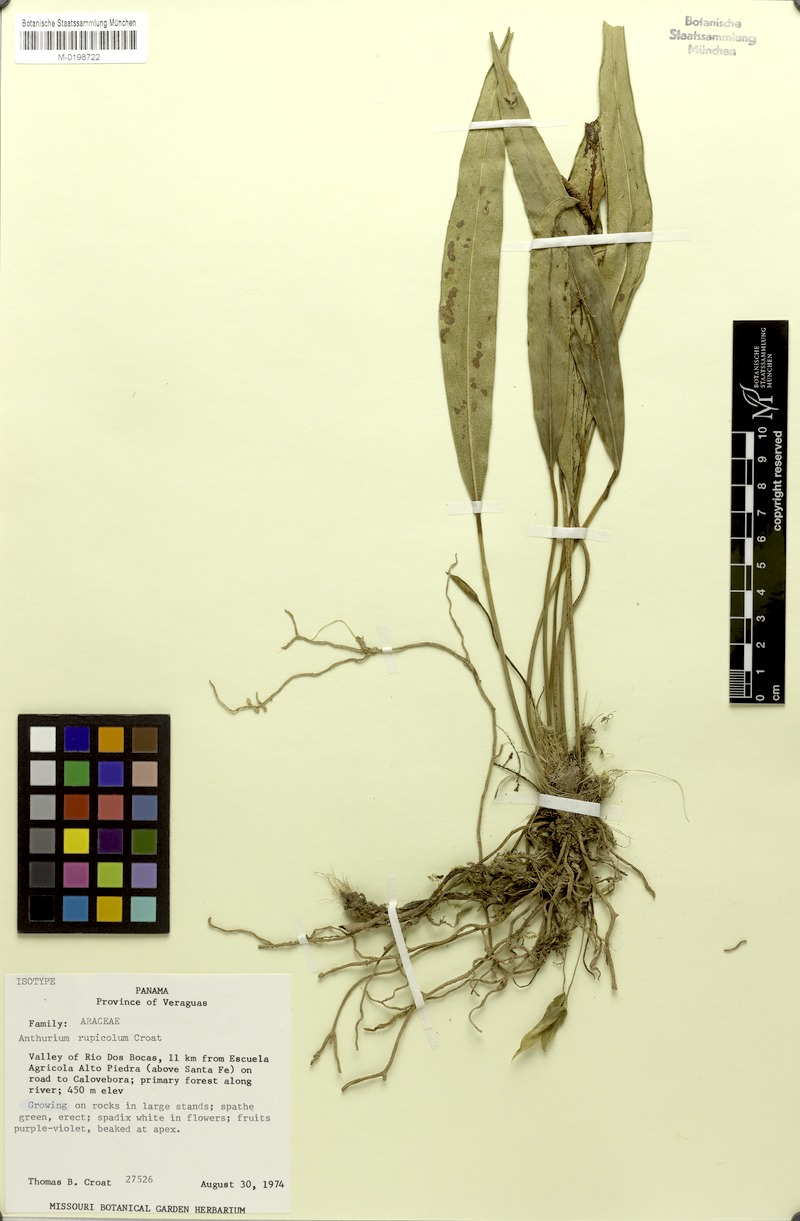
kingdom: Plantae
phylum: Tracheophyta
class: Liliopsida
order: Alismatales
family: Araceae
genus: Anthurium
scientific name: Anthurium rupicola
